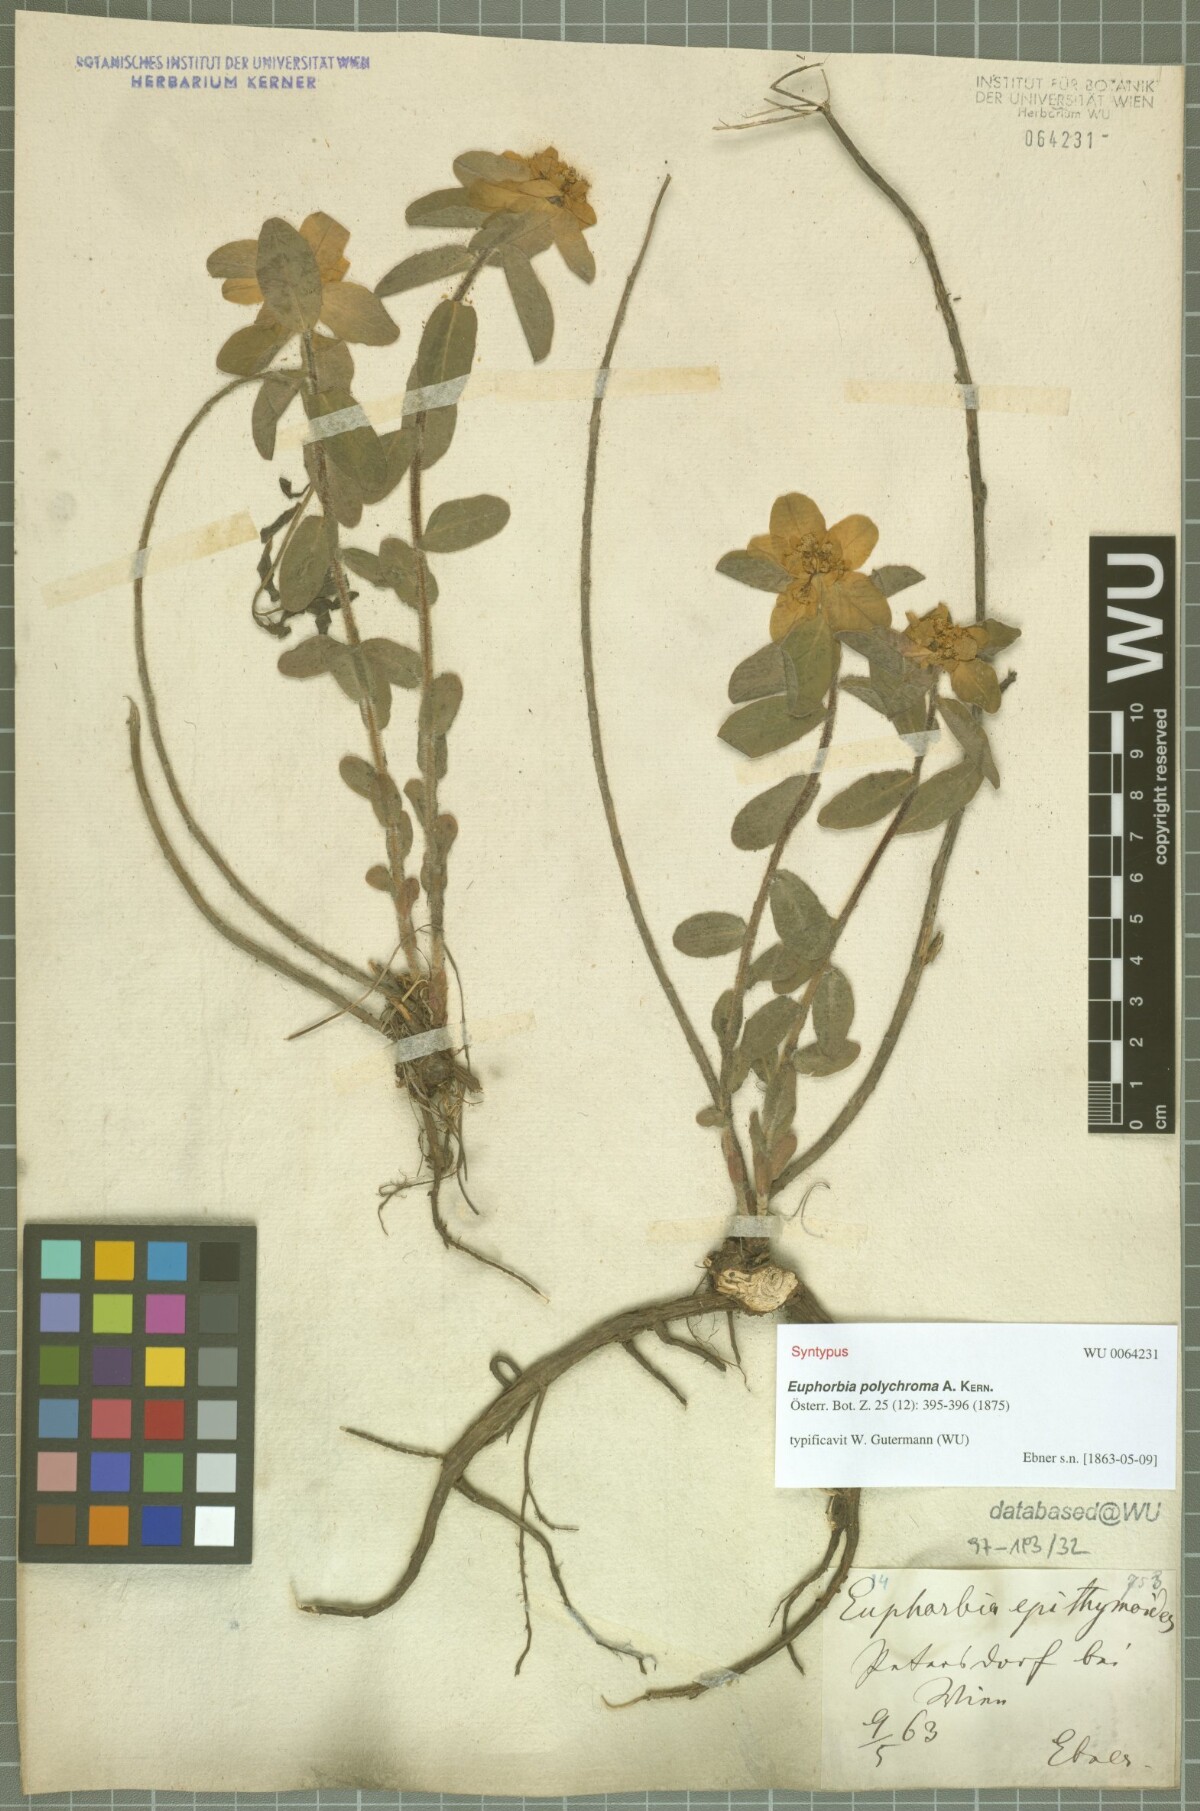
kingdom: Plantae
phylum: Tracheophyta
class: Magnoliopsida
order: Malpighiales
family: Euphorbiaceae
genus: Euphorbia
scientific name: Euphorbia epithymoides
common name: Cushion spurge
